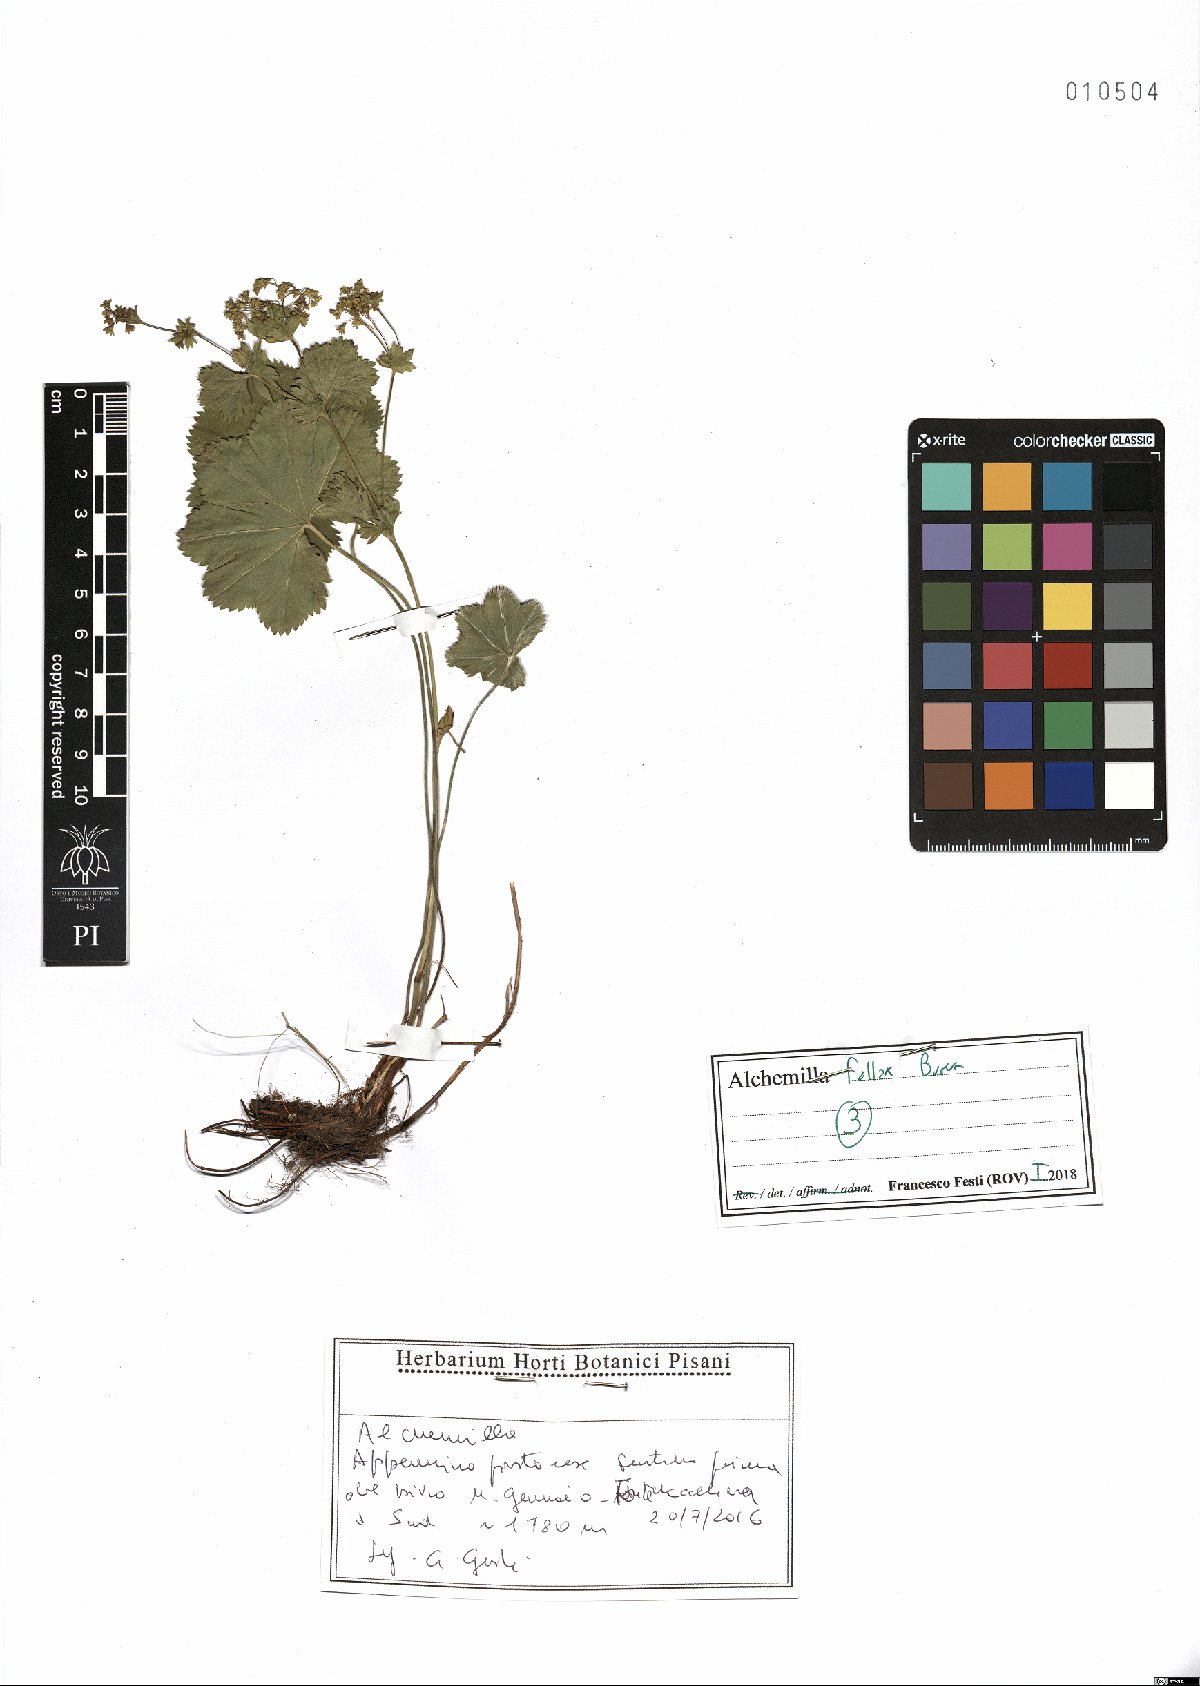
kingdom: Plantae
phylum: Tracheophyta
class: Magnoliopsida
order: Rosales
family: Rosaceae
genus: Alchemilla
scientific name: Alchemilla fallax
